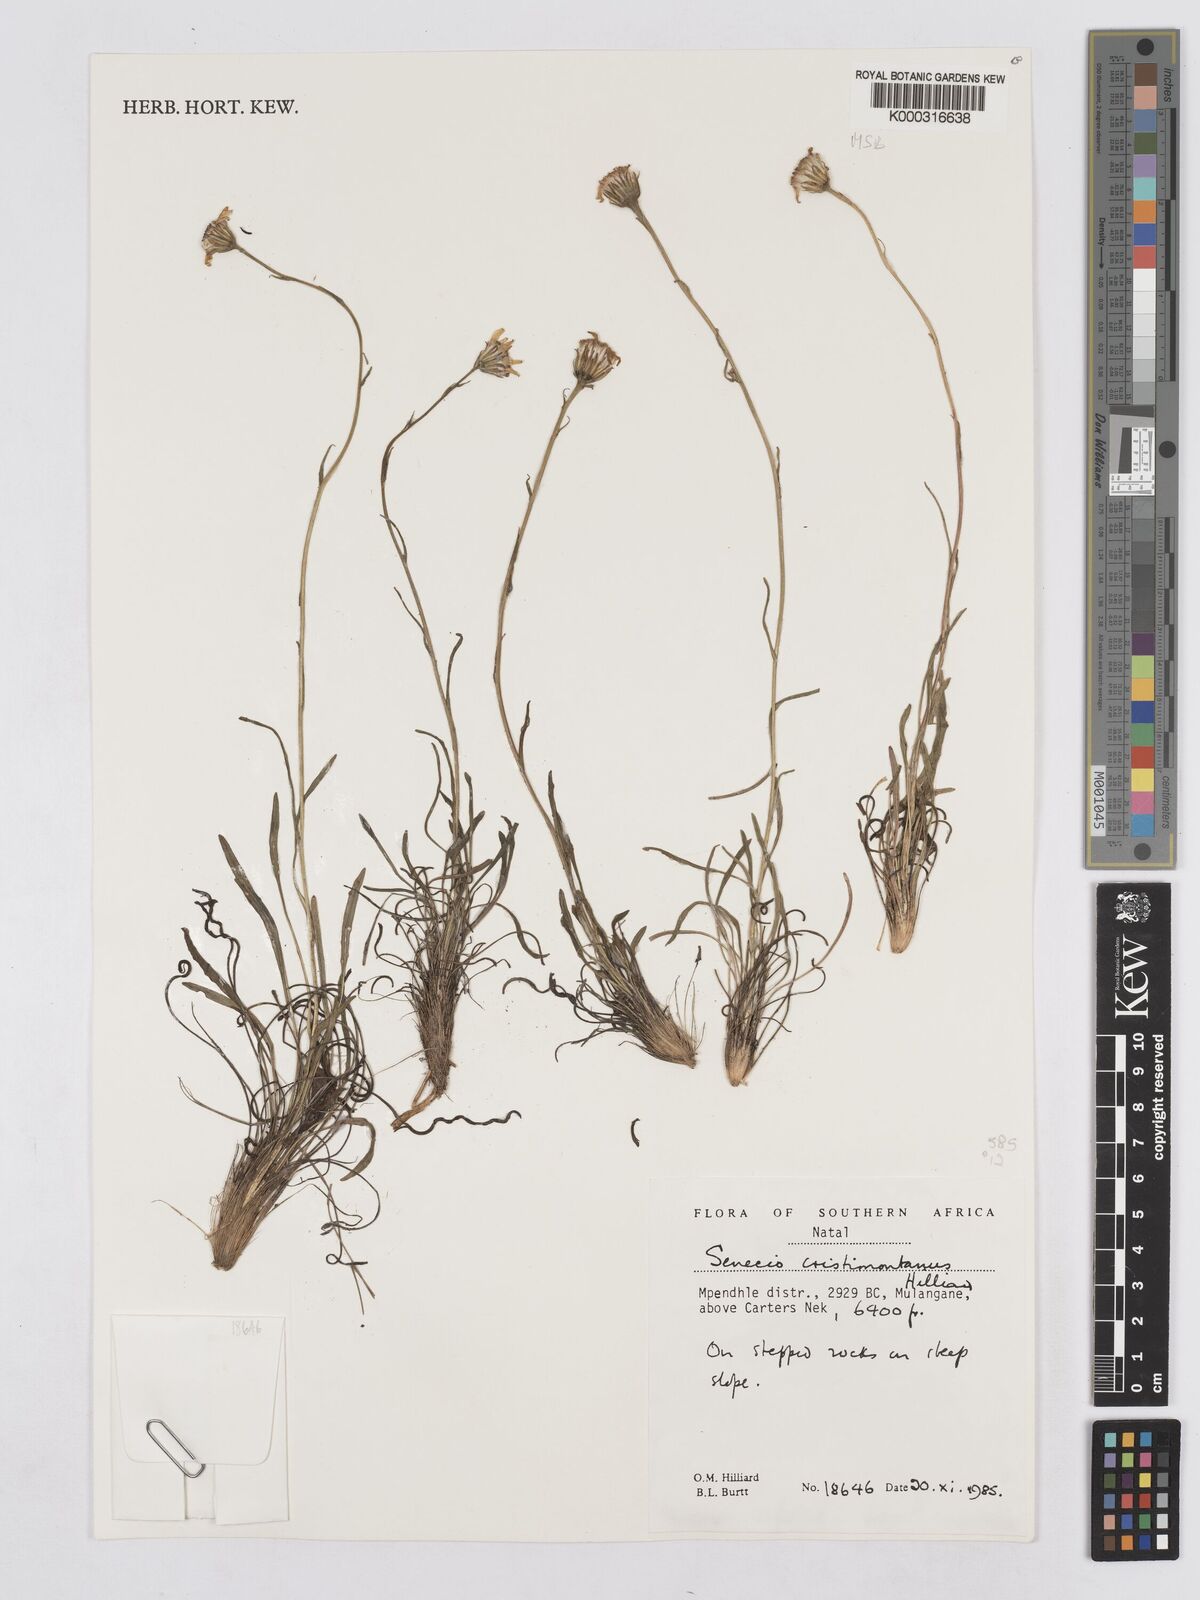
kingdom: Plantae
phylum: Tracheophyta
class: Magnoliopsida
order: Asterales
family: Asteraceae
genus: Senecio
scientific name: Senecio cristimontanus
